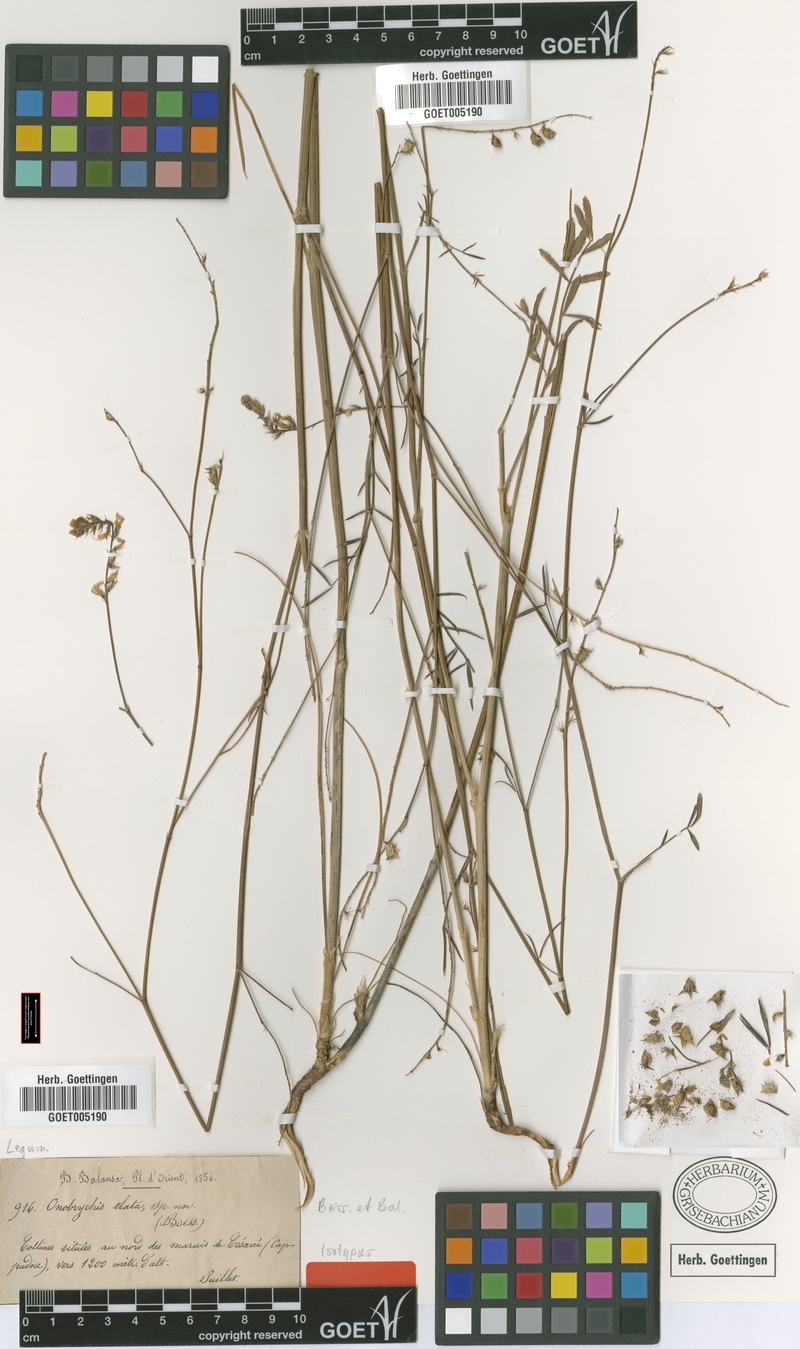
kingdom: Plantae
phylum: Tracheophyta
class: Magnoliopsida
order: Fabales
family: Fabaceae
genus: Onobrychis
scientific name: Onobrychis elata
